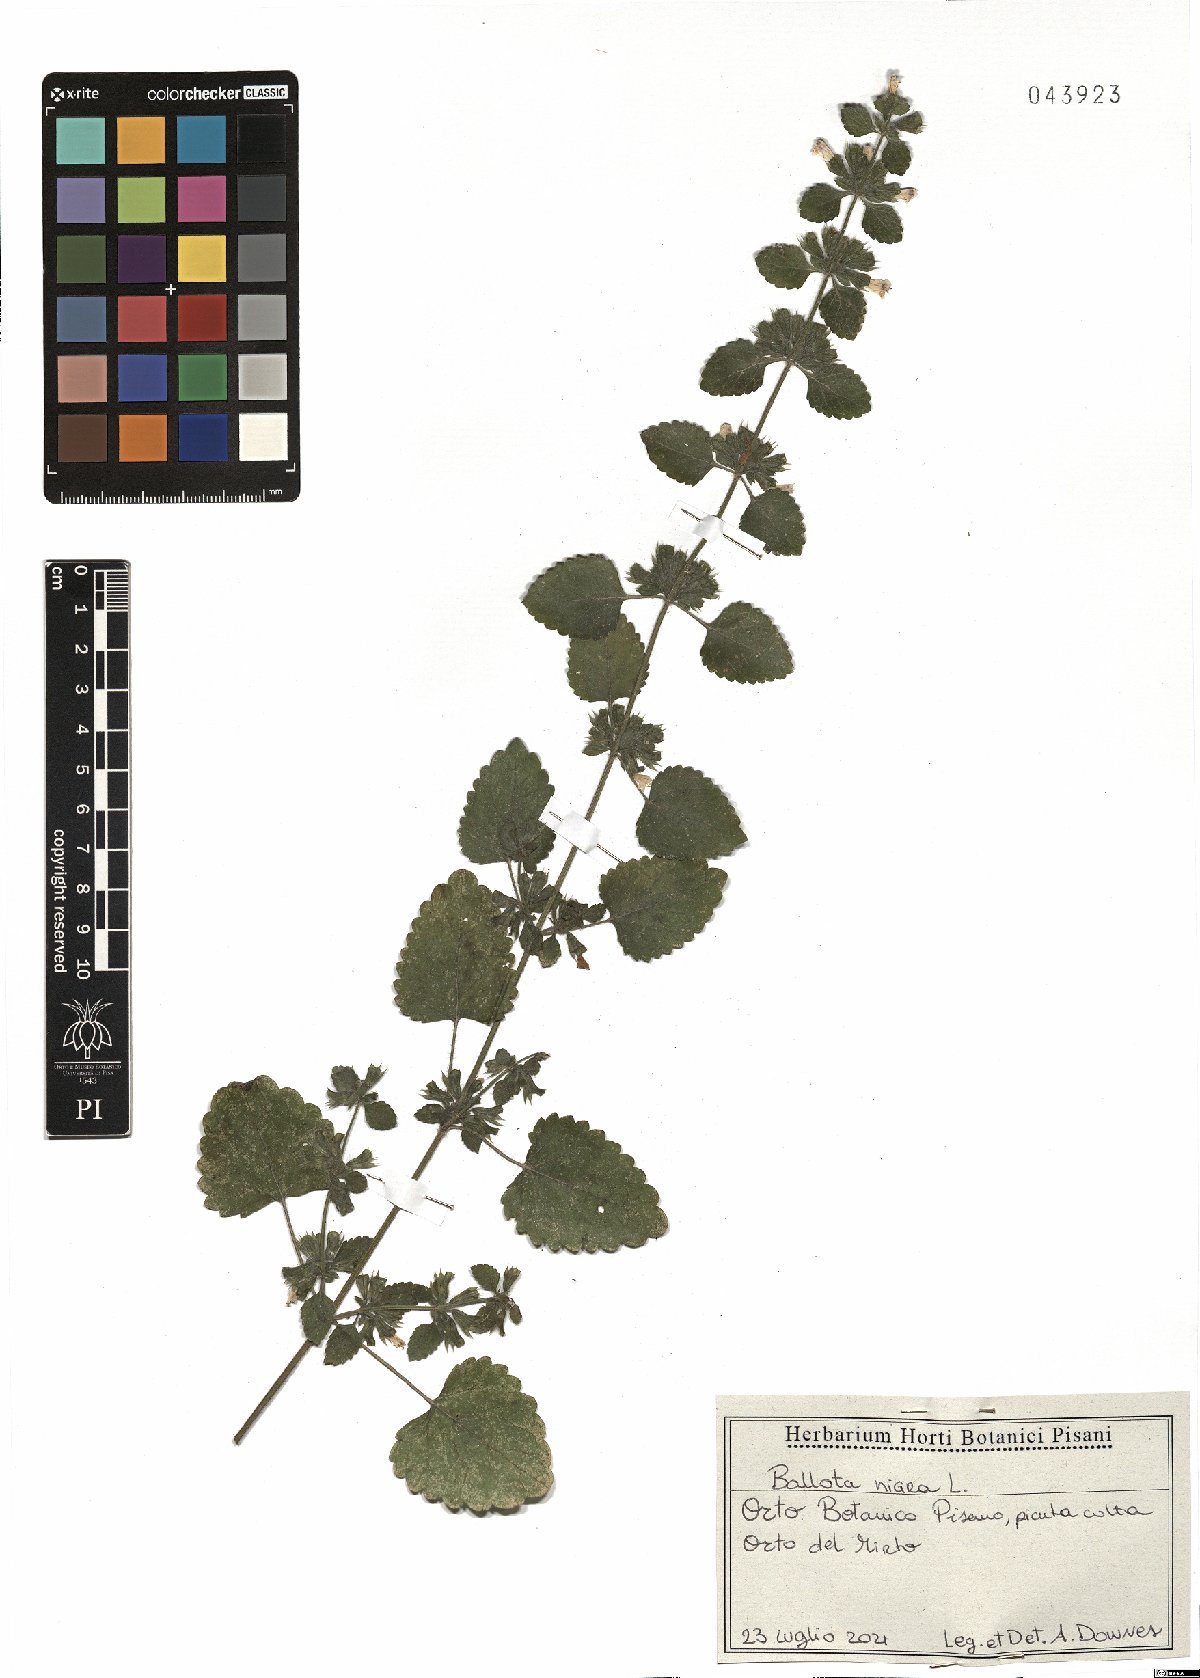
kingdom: Plantae
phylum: Tracheophyta
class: Magnoliopsida
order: Lamiales
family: Lamiaceae
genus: Ballota
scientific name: Ballota nigra
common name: Black horehound
